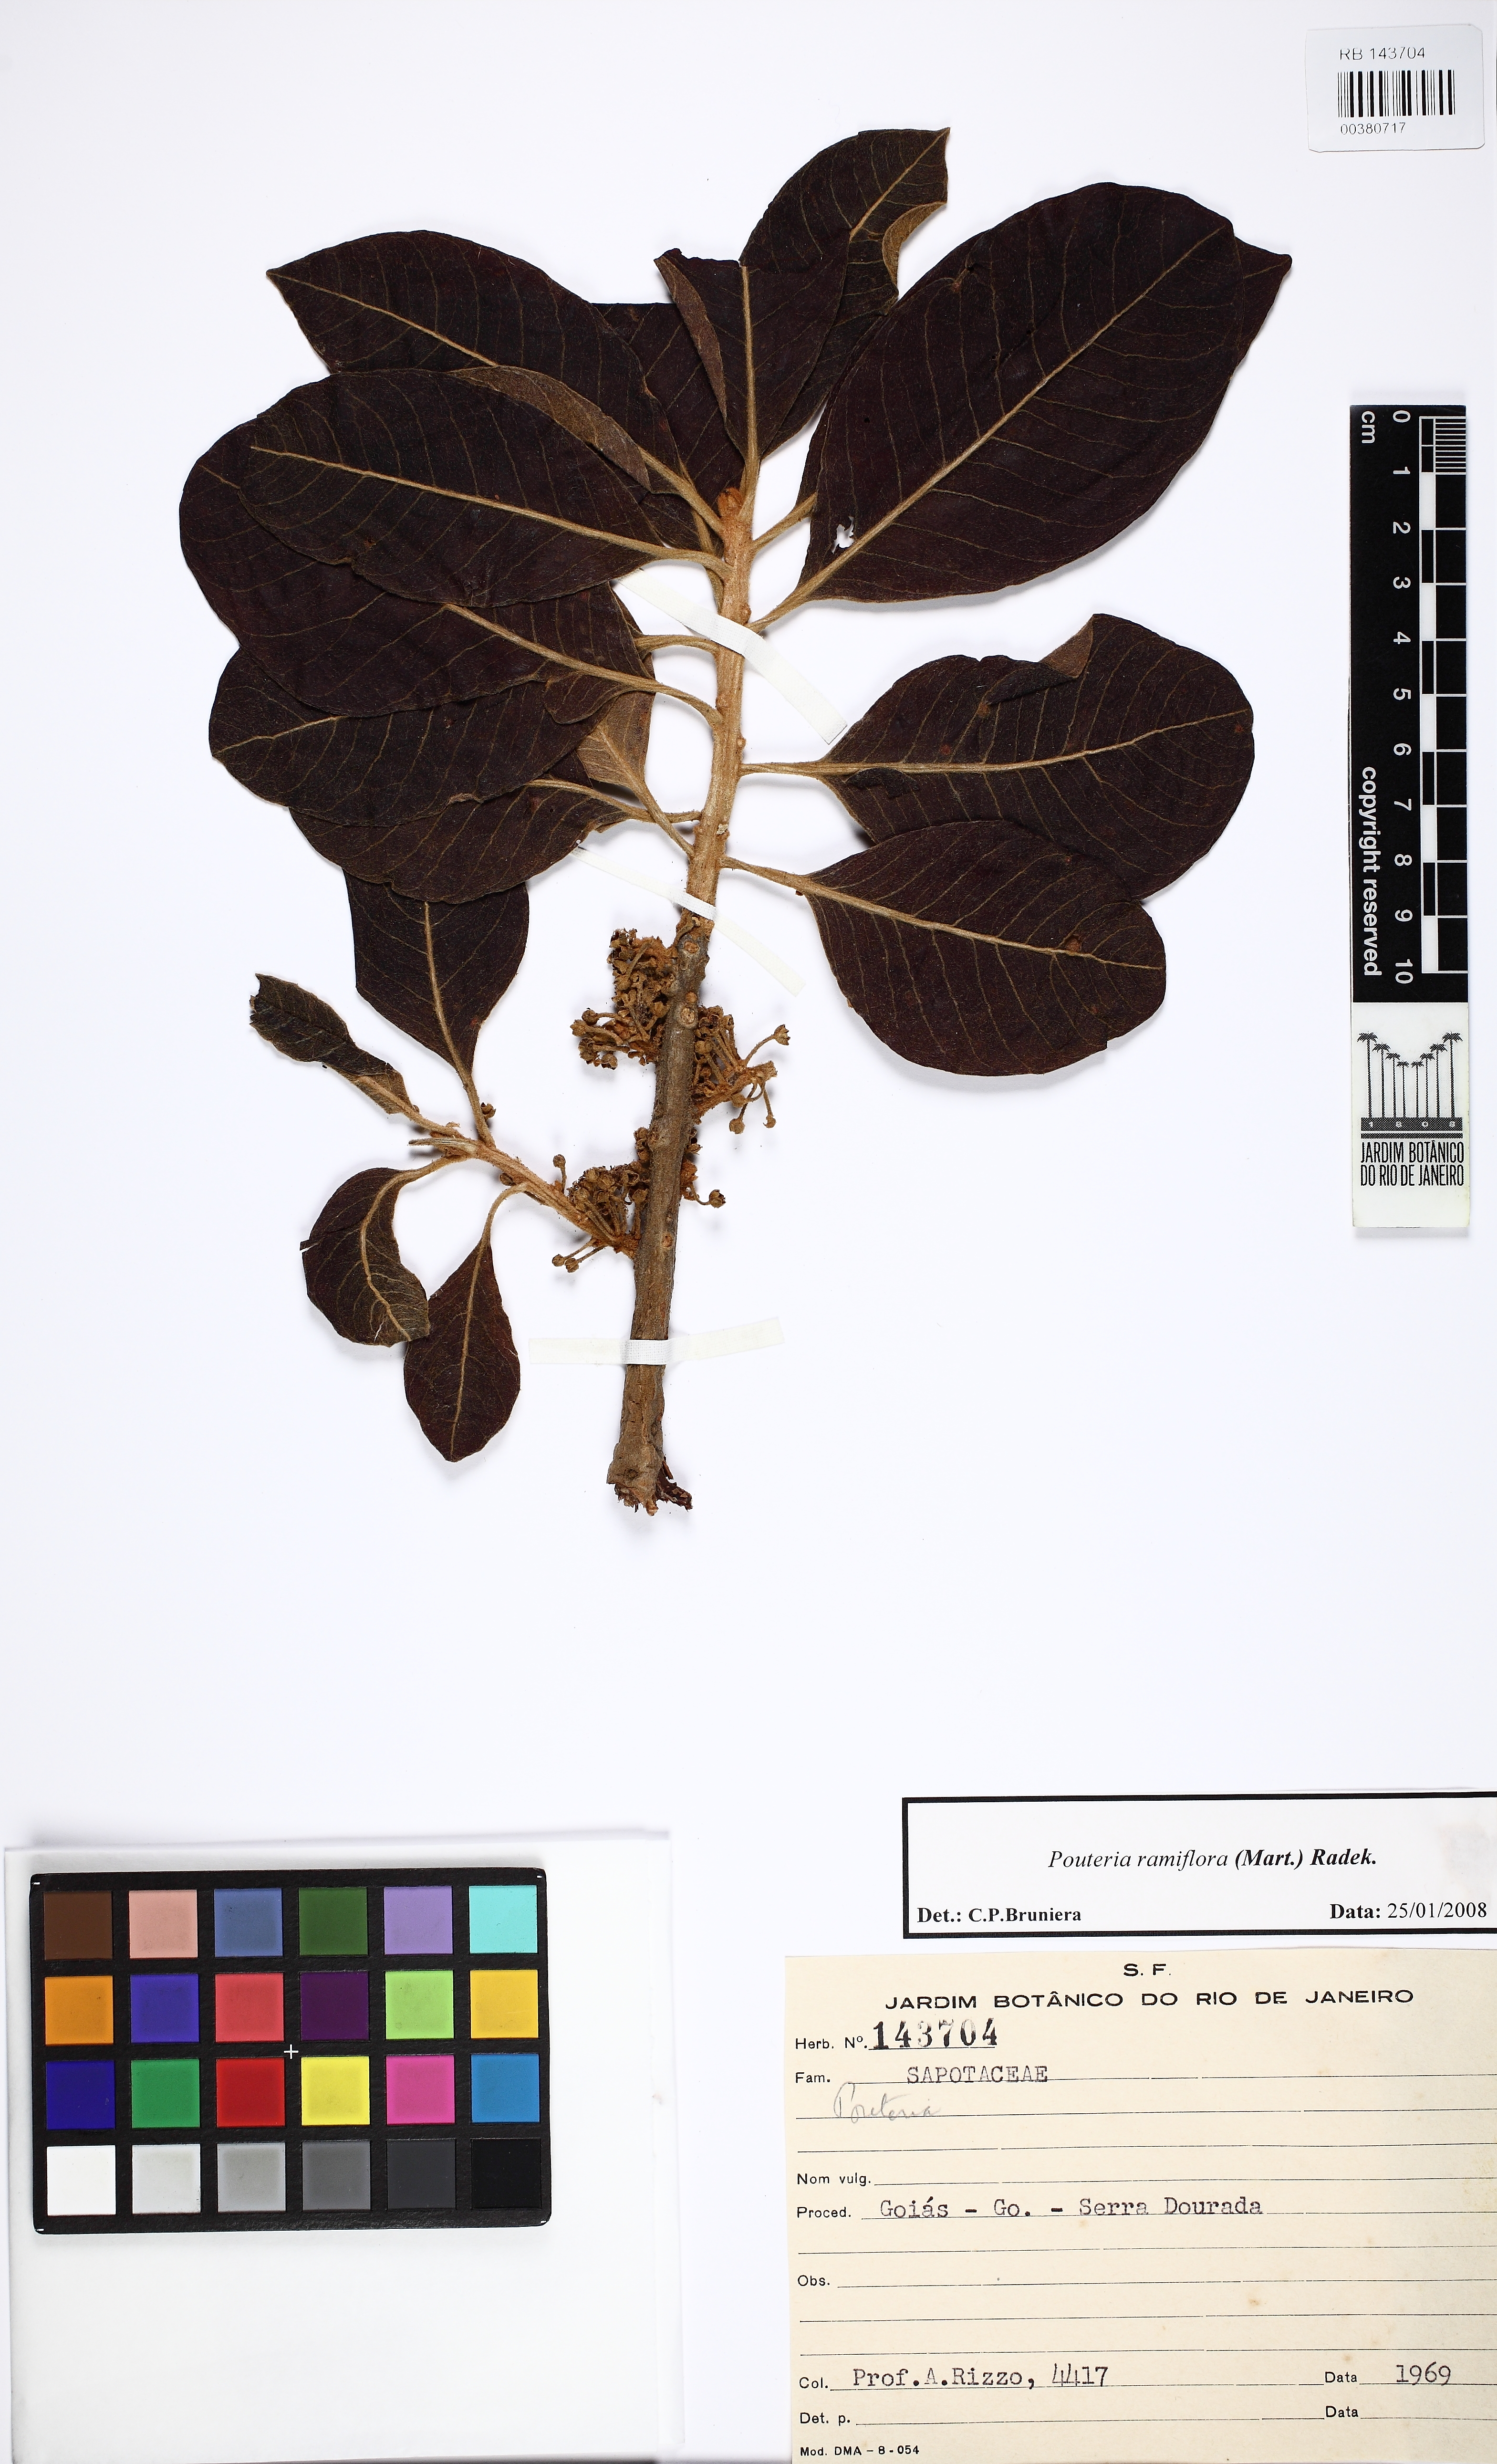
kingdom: Plantae
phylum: Tracheophyta
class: Magnoliopsida
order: Ericales
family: Sapotaceae
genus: Pouteria
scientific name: Pouteria ramiflora
